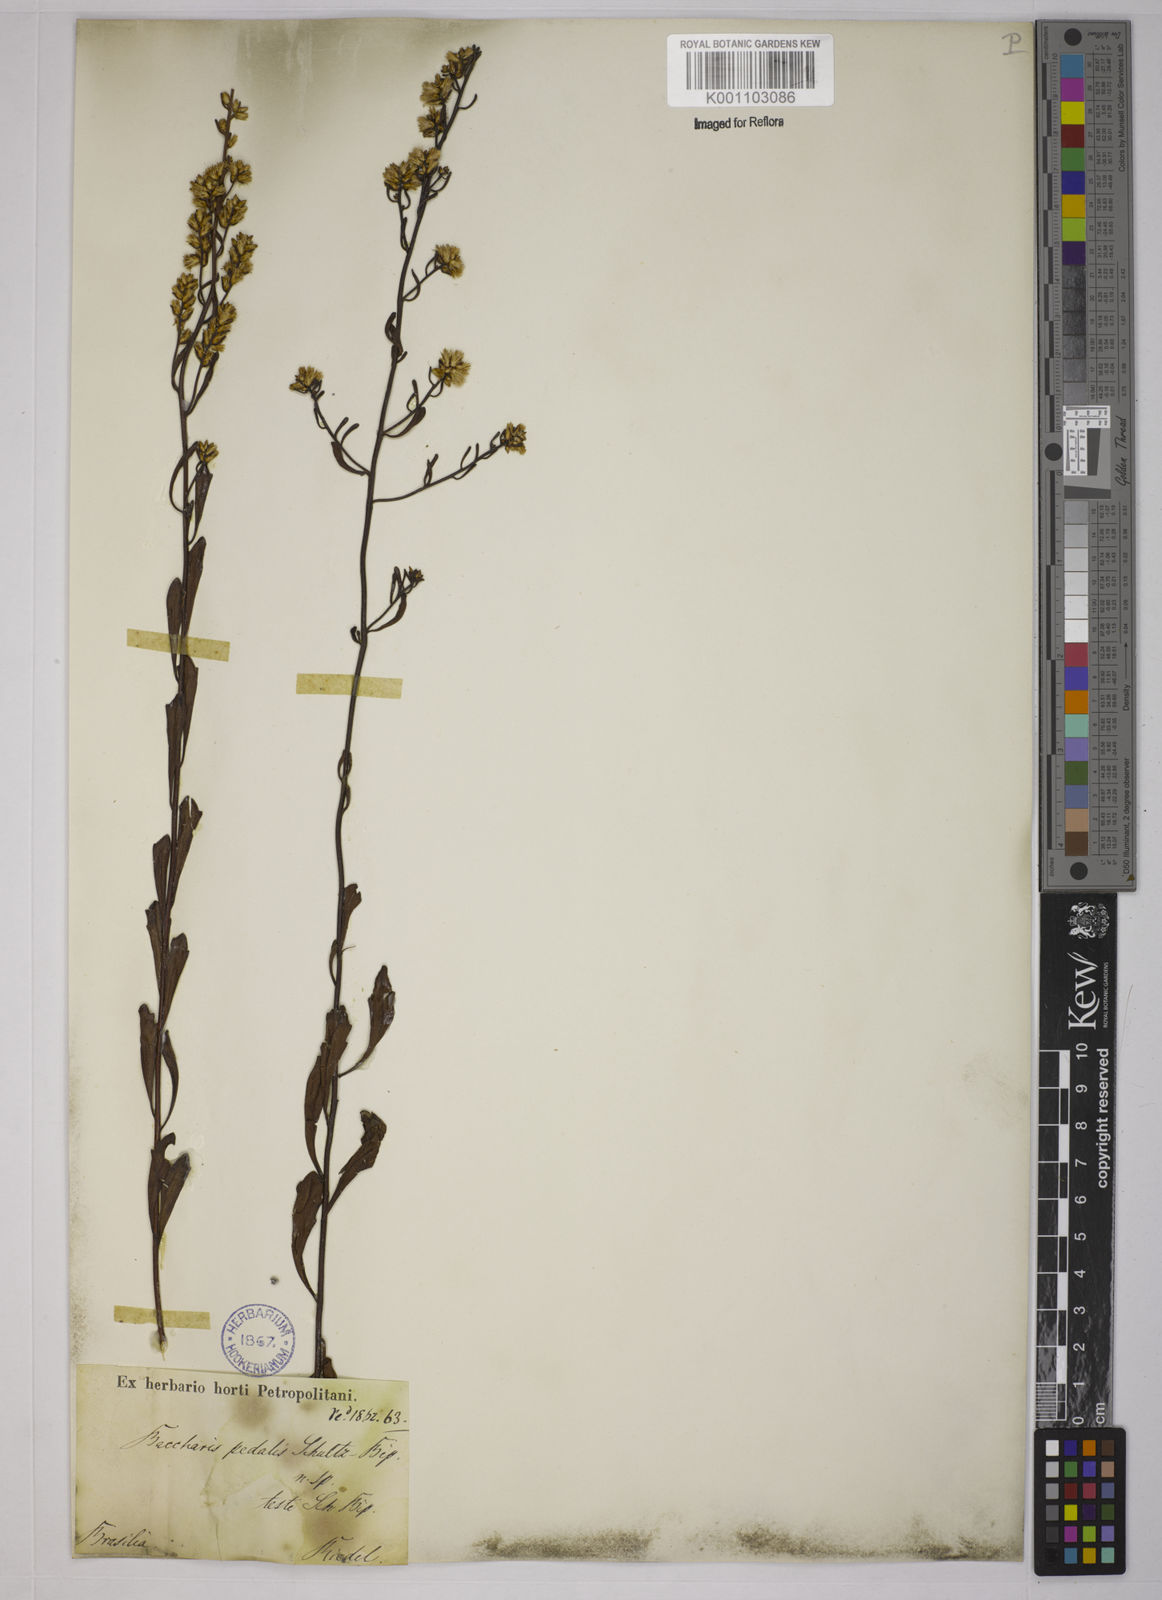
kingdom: Plantae
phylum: Tracheophyta
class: Magnoliopsida
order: Asterales
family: Asteraceae
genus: Baccharis
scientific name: Baccharis pseudotenuifolia
